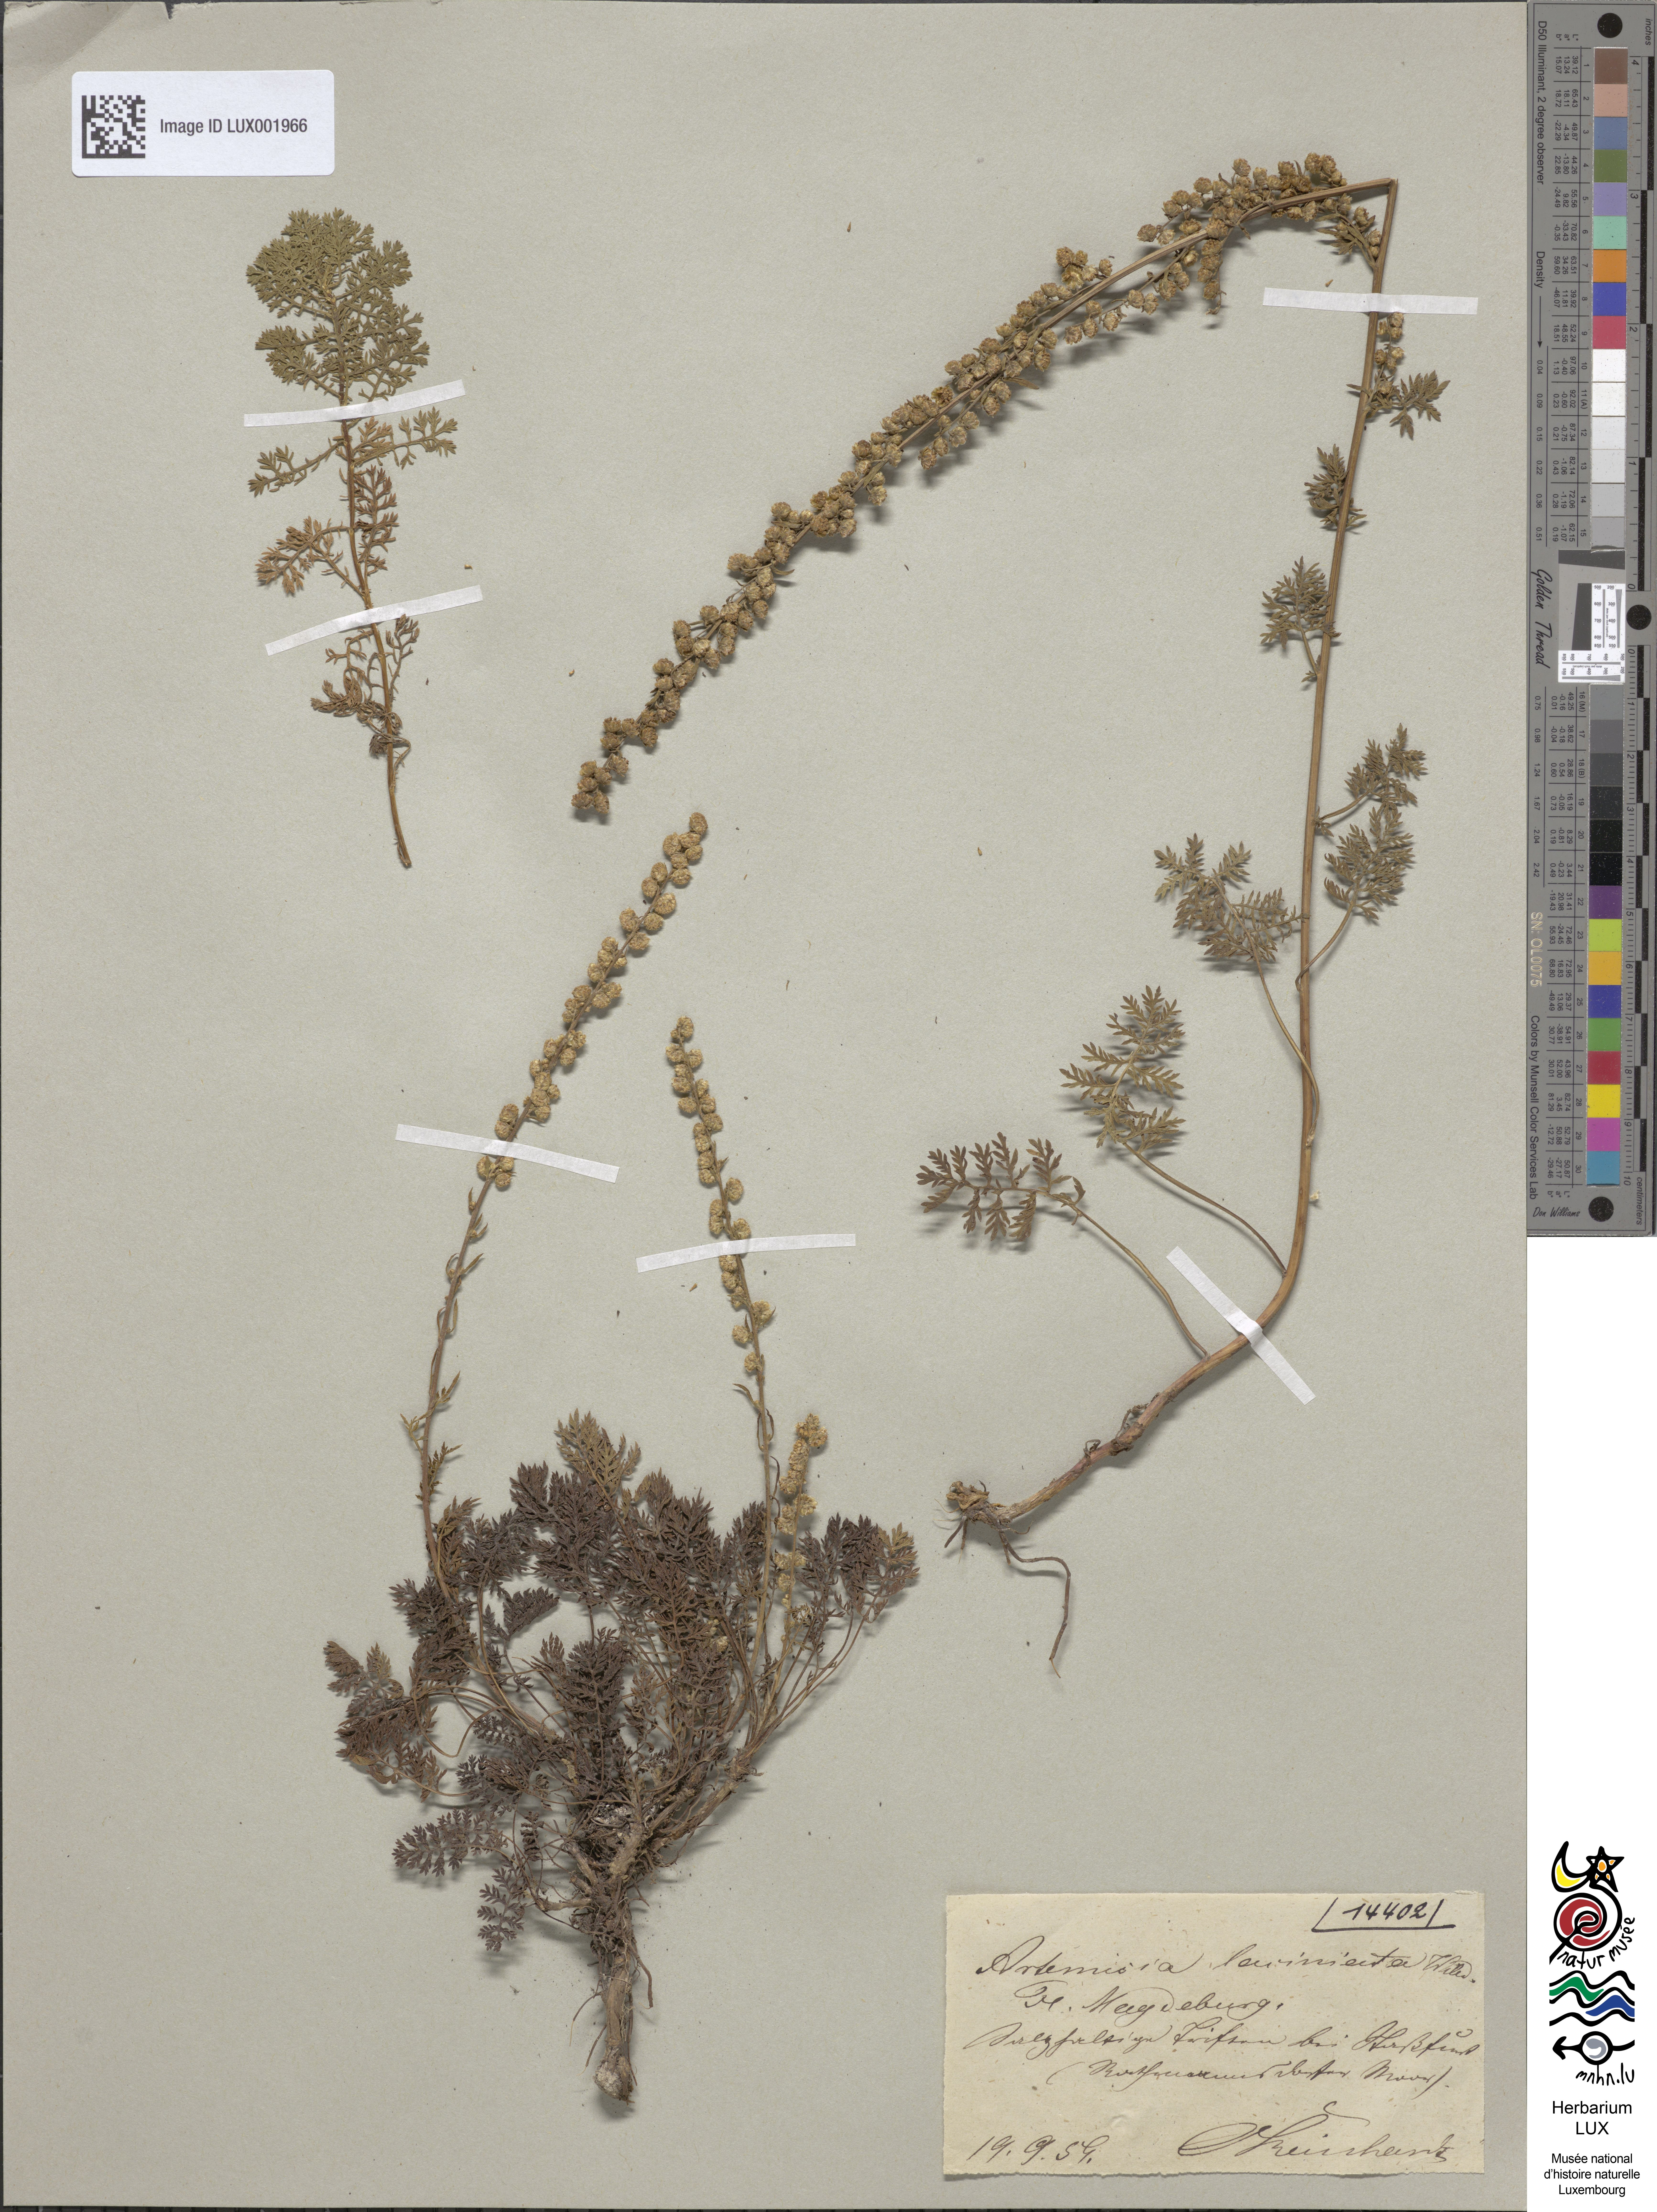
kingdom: Plantae
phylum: Tracheophyta
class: Magnoliopsida
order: Asterales
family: Asteraceae
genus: Artemisia
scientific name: Artemisia laciniata
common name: Siberian wormwood
